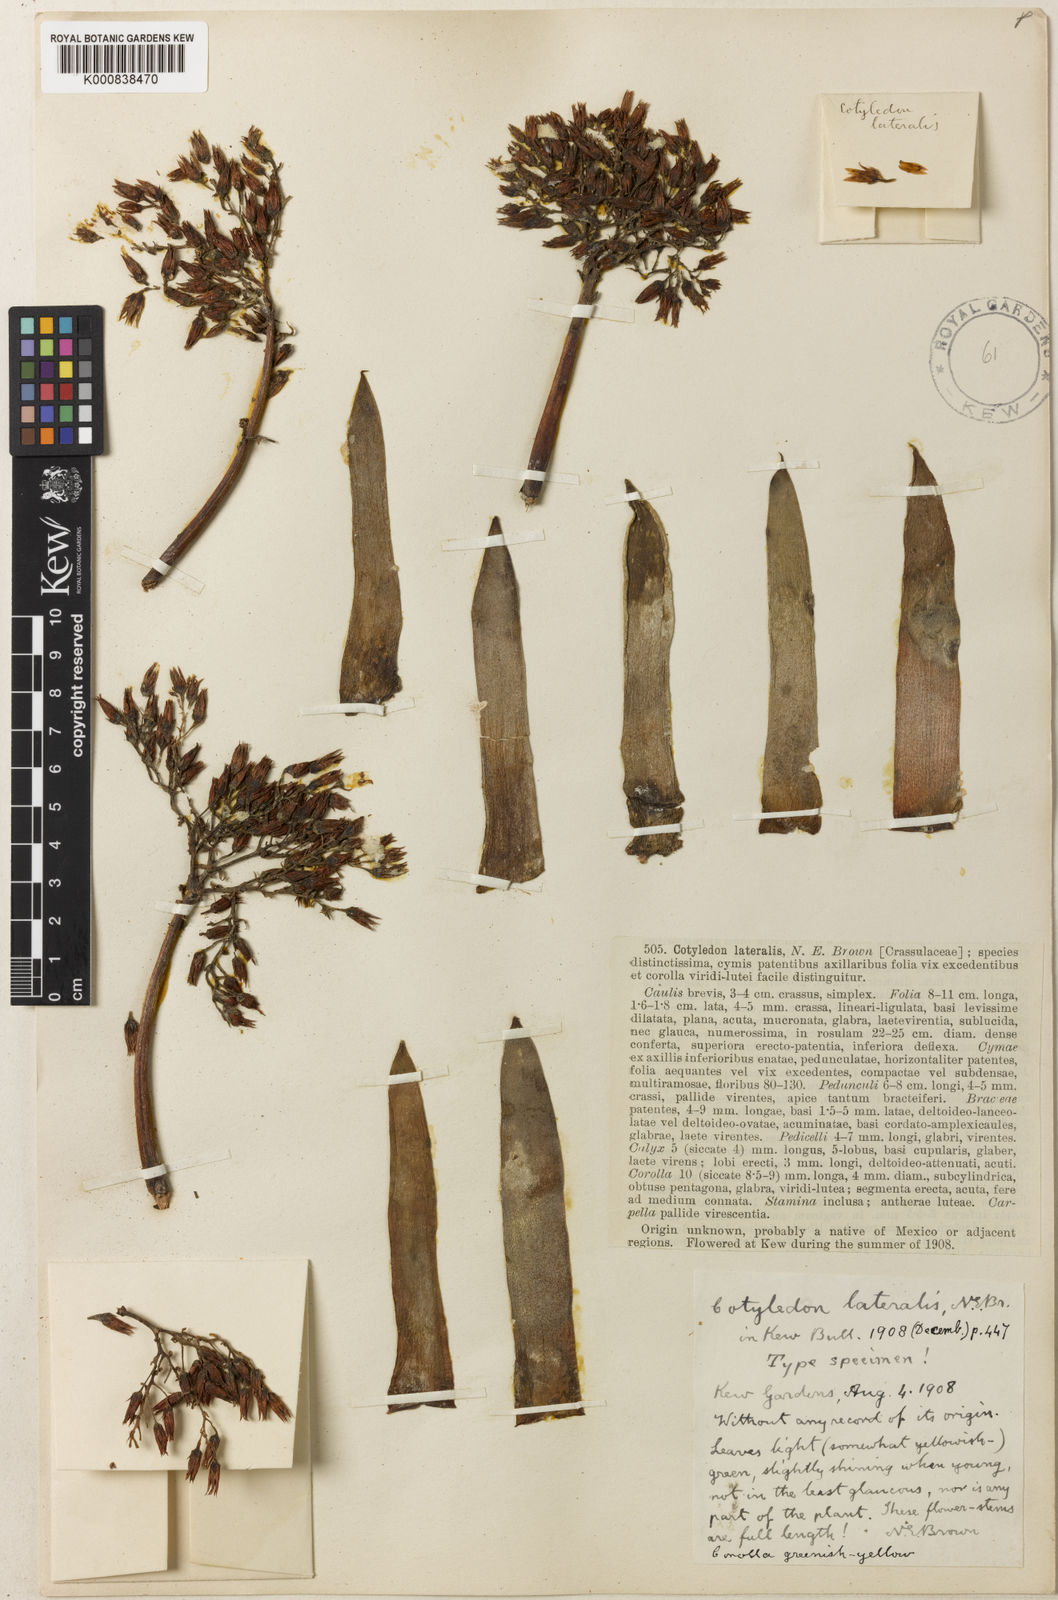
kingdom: Plantae
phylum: Tracheophyta
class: Magnoliopsida
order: Saxifragales
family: Crassulaceae
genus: Cotyledon
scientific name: Cotyledon lateralis
